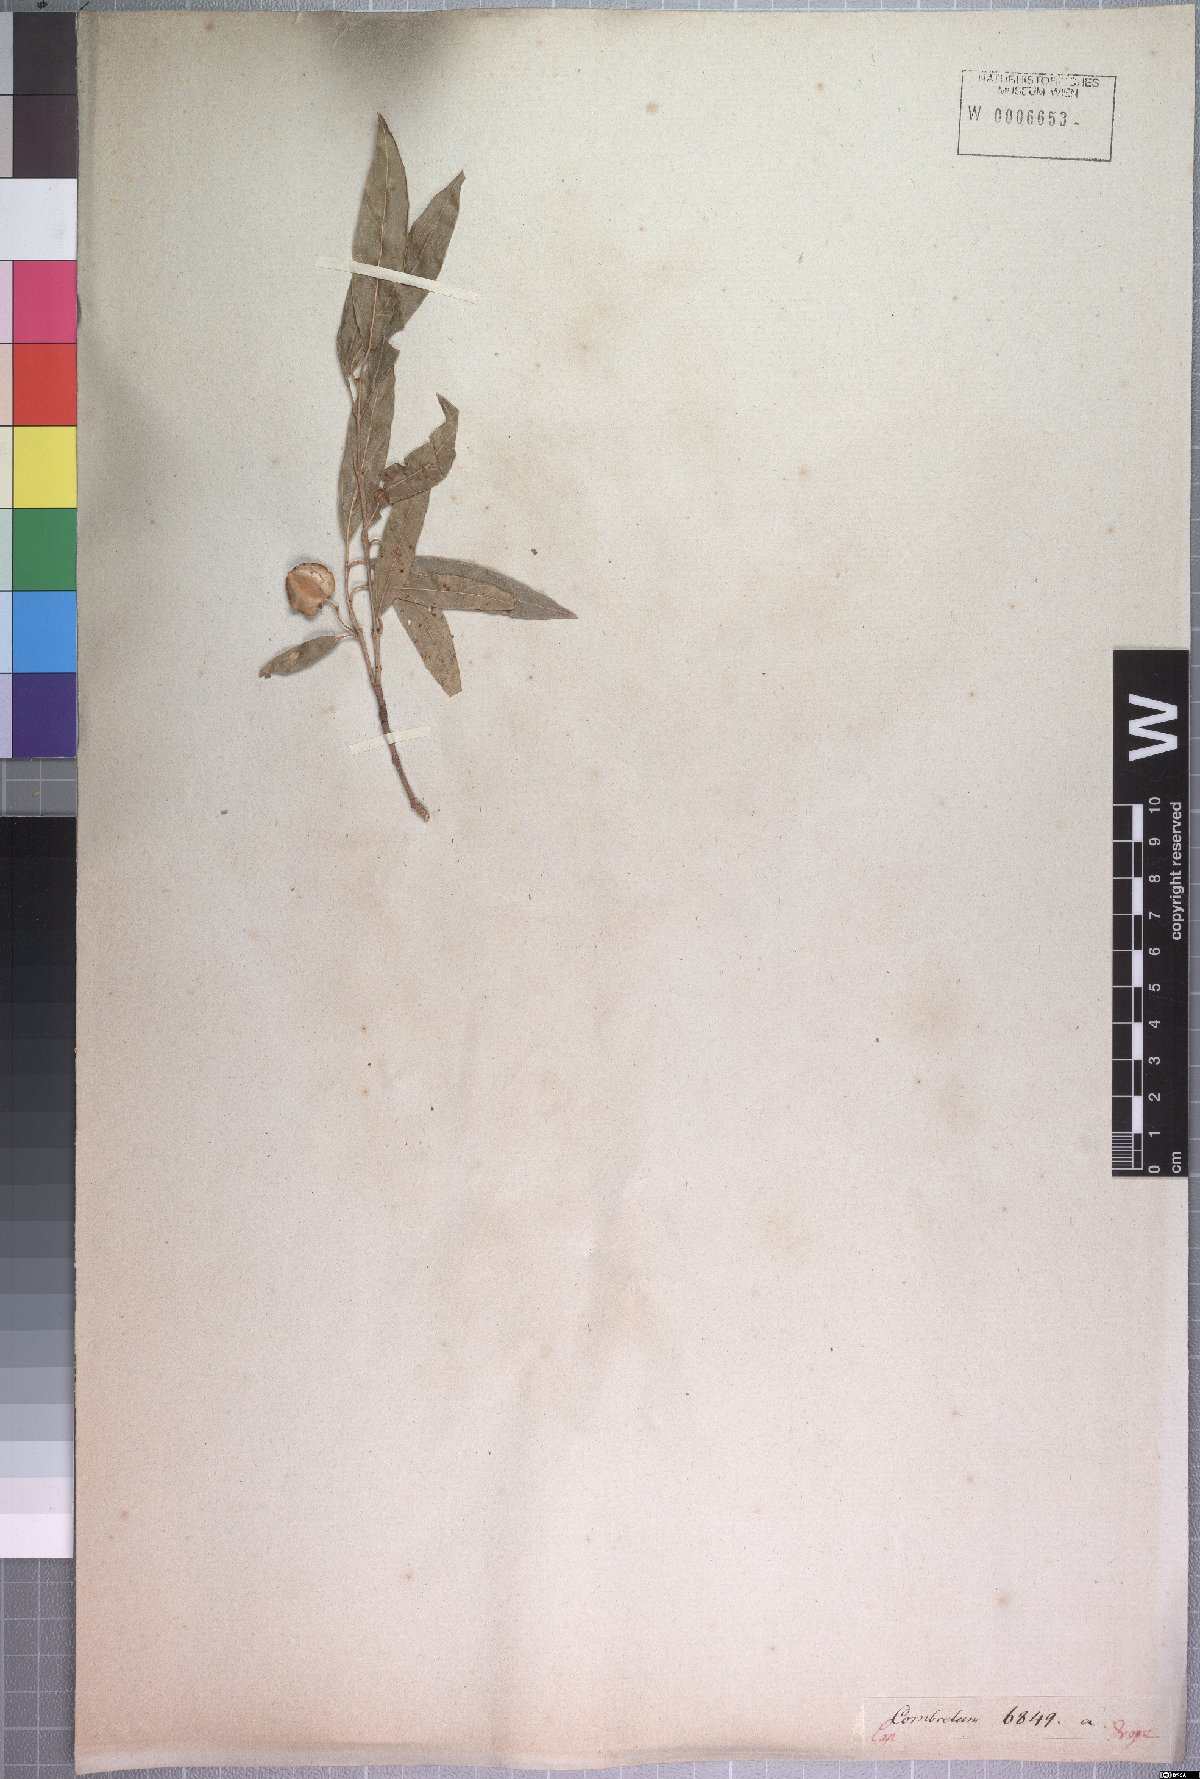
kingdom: Plantae
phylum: Tracheophyta
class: Magnoliopsida
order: Myrtales
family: Combretaceae
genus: Combretum
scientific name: Combretum caffrum
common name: Cape bushwillow
